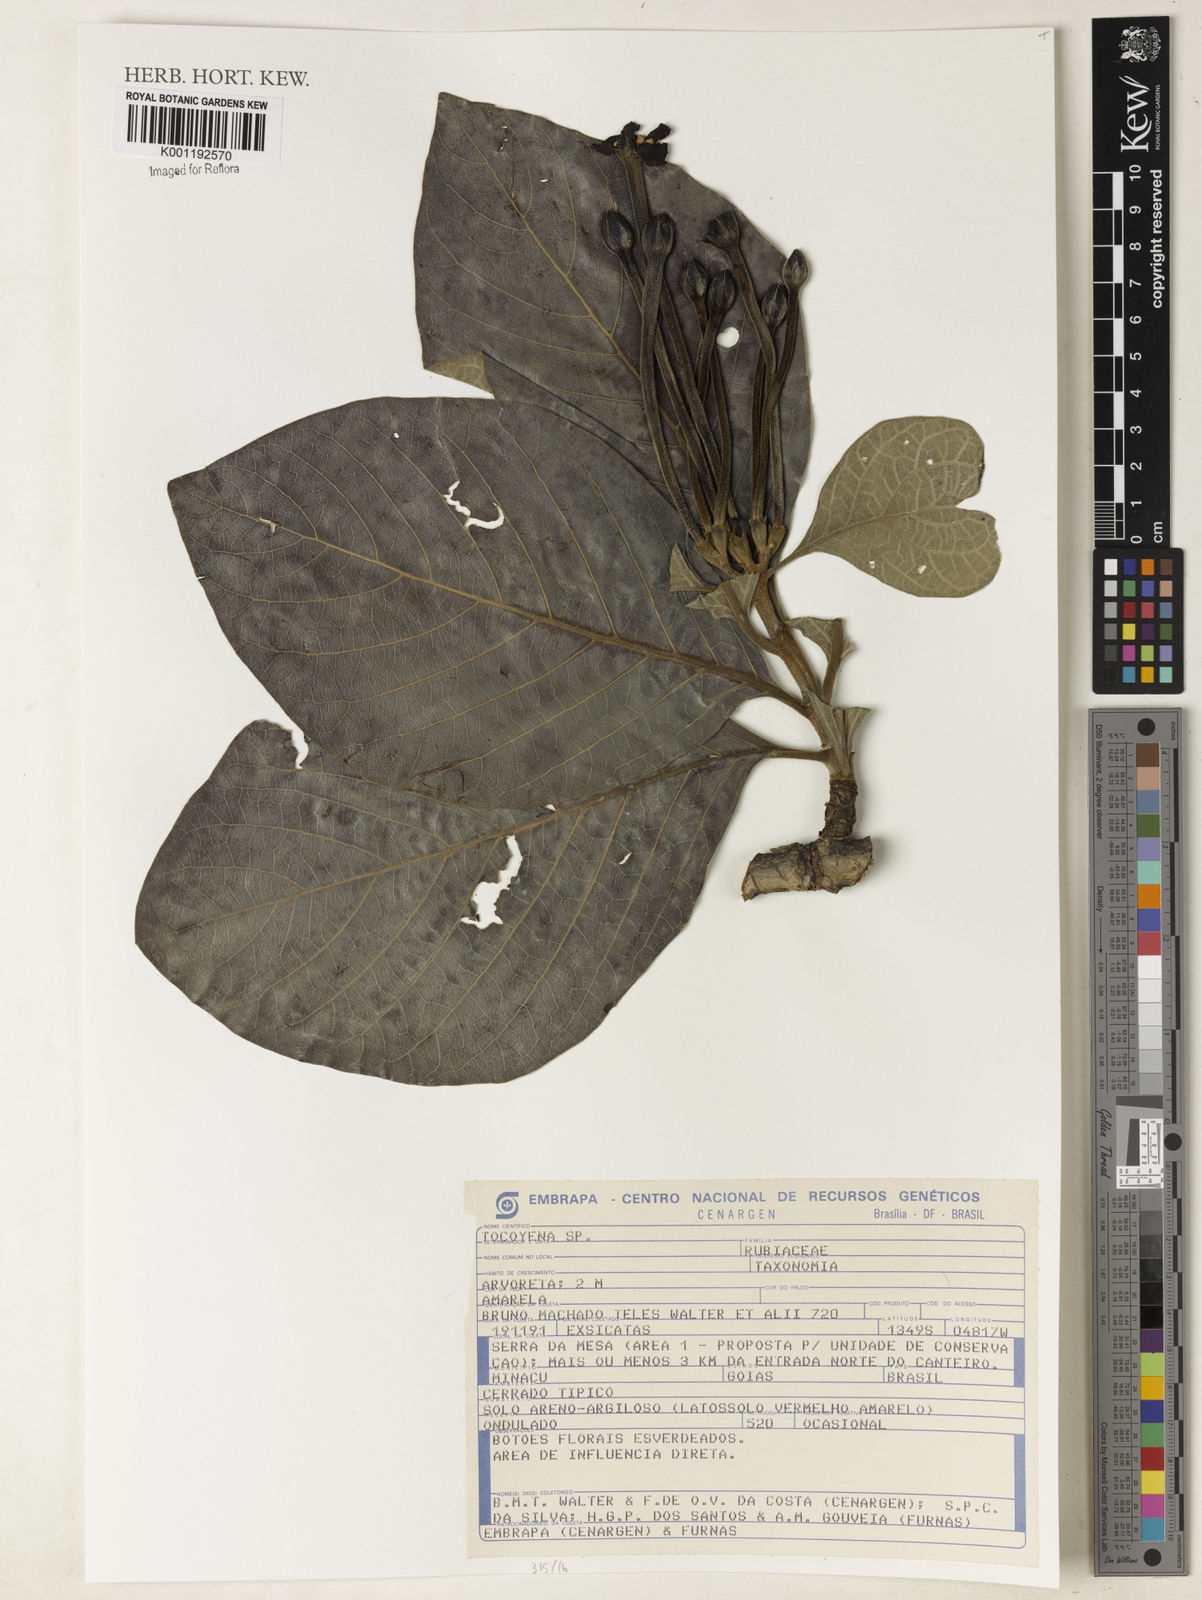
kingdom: Plantae
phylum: Tracheophyta
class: Magnoliopsida
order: Gentianales
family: Rubiaceae
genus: Tocoyena
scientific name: Tocoyena
